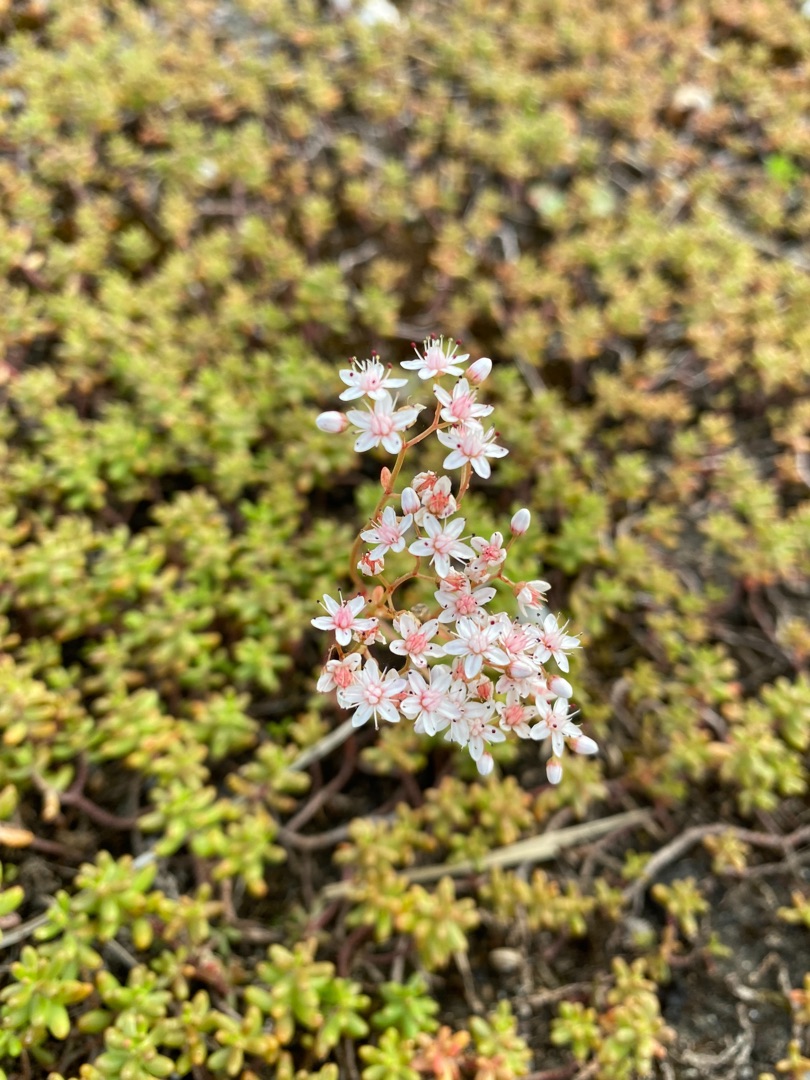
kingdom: Plantae
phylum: Tracheophyta
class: Magnoliopsida
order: Saxifragales
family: Crassulaceae
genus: Sedum
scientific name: Sedum album
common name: Hvid stenurt
